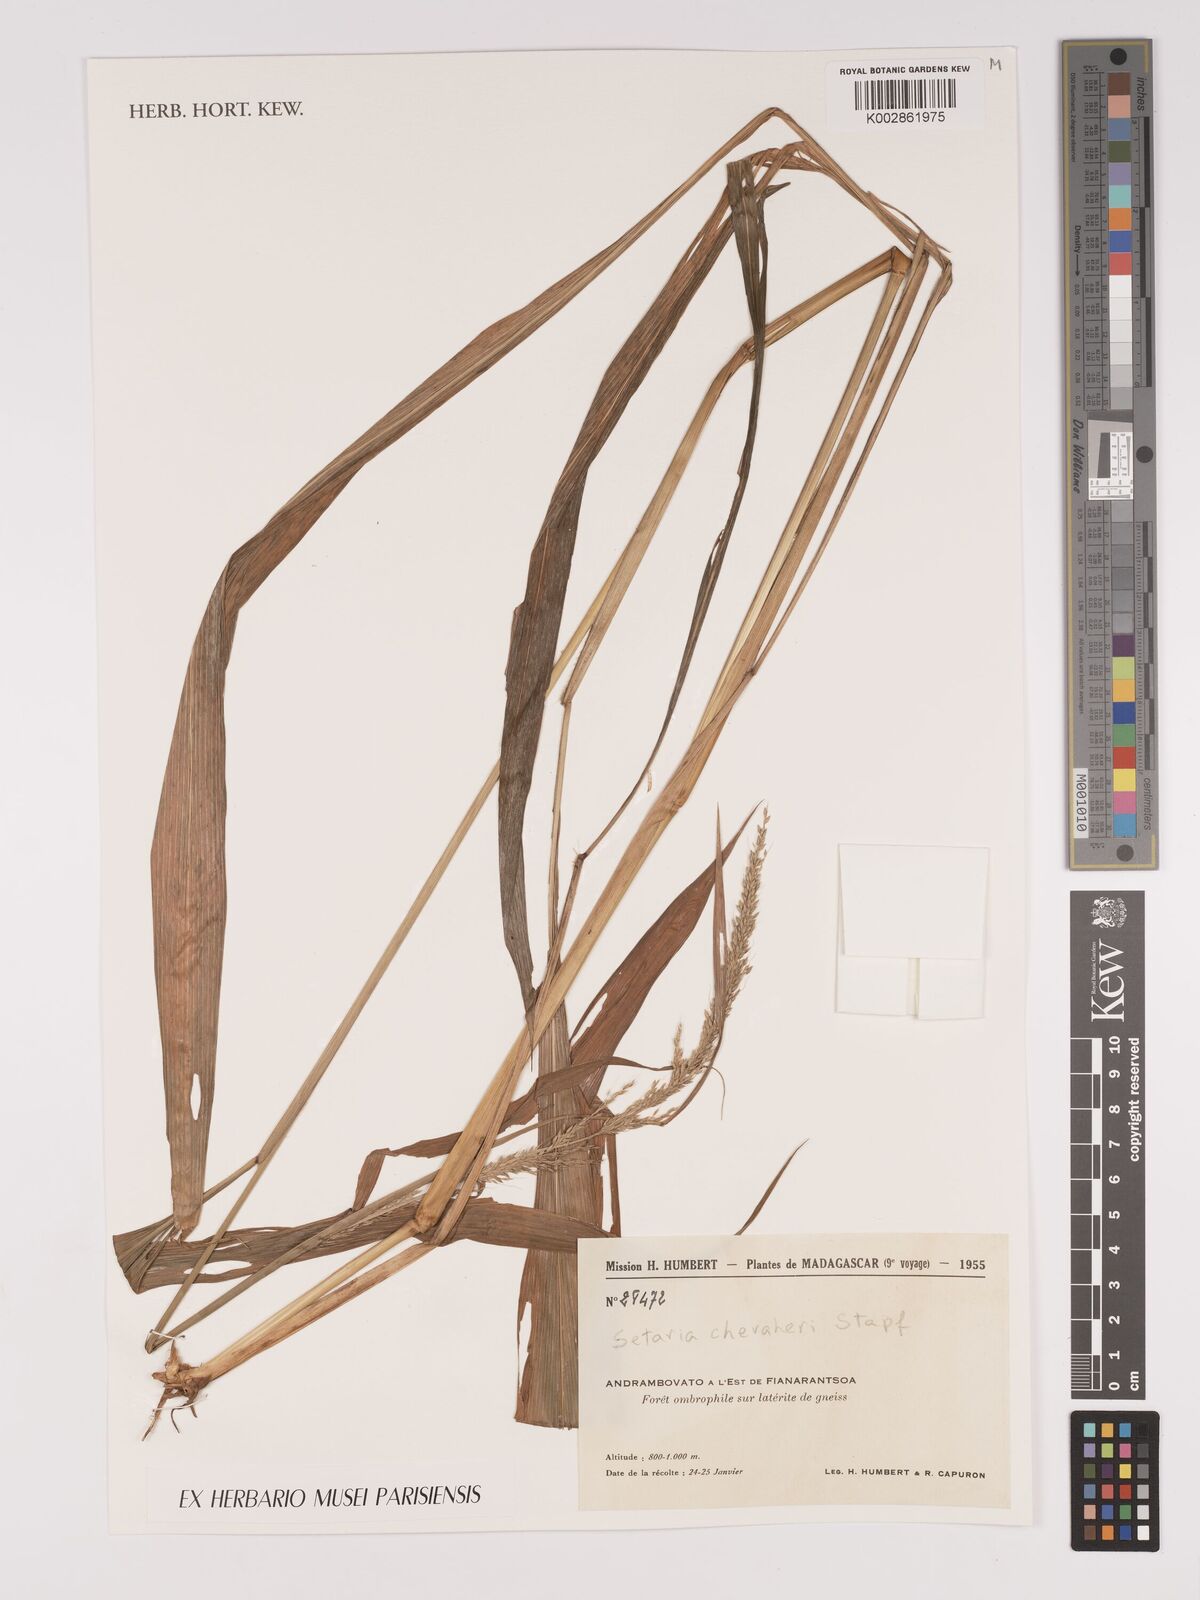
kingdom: Plantae
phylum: Tracheophyta
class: Liliopsida
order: Poales
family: Poaceae
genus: Setaria
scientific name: Setaria megaphylla
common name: Bigleaf bristlegrass
